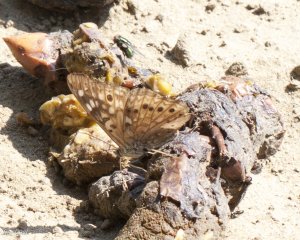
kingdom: Animalia
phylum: Arthropoda
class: Insecta
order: Lepidoptera
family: Nymphalidae
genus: Asterocampa
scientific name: Asterocampa celtis
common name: Hackberry Emperor
